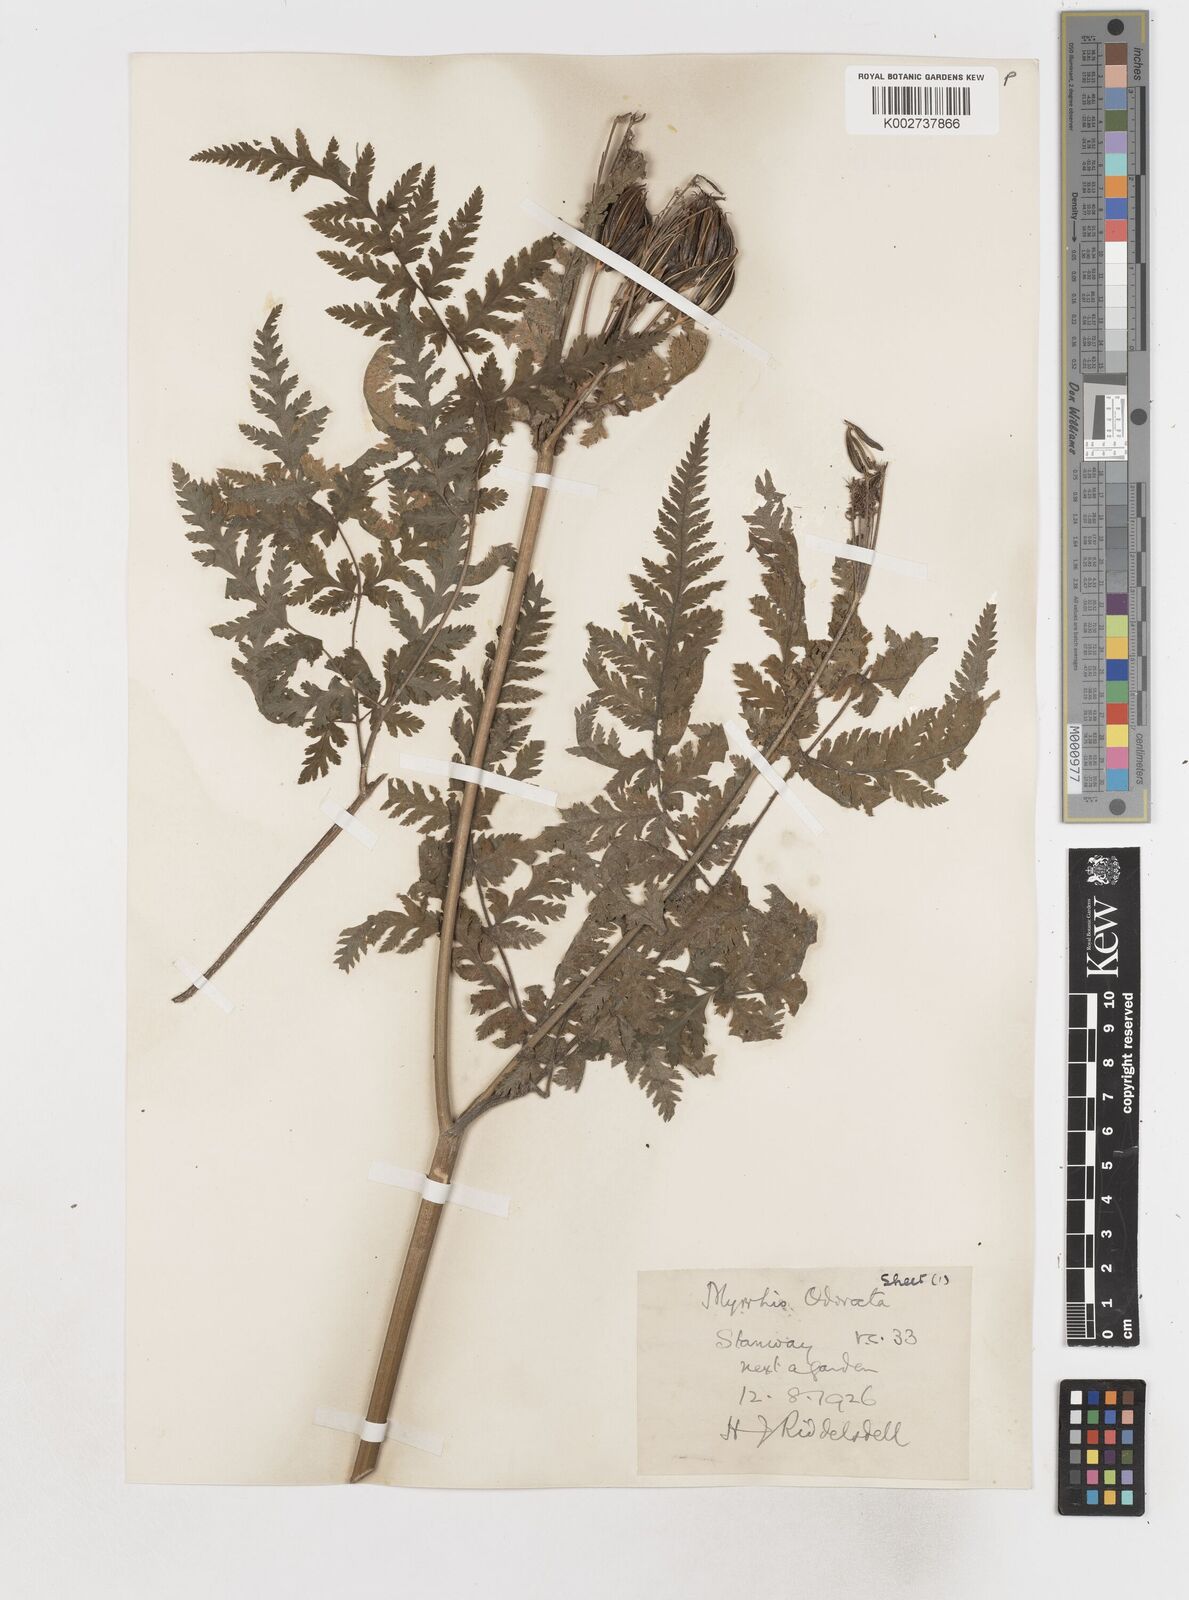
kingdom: Plantae
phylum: Tracheophyta
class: Magnoliopsida
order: Apiales
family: Apiaceae
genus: Myrrhis
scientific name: Myrrhis odorata
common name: Sweet cicely
